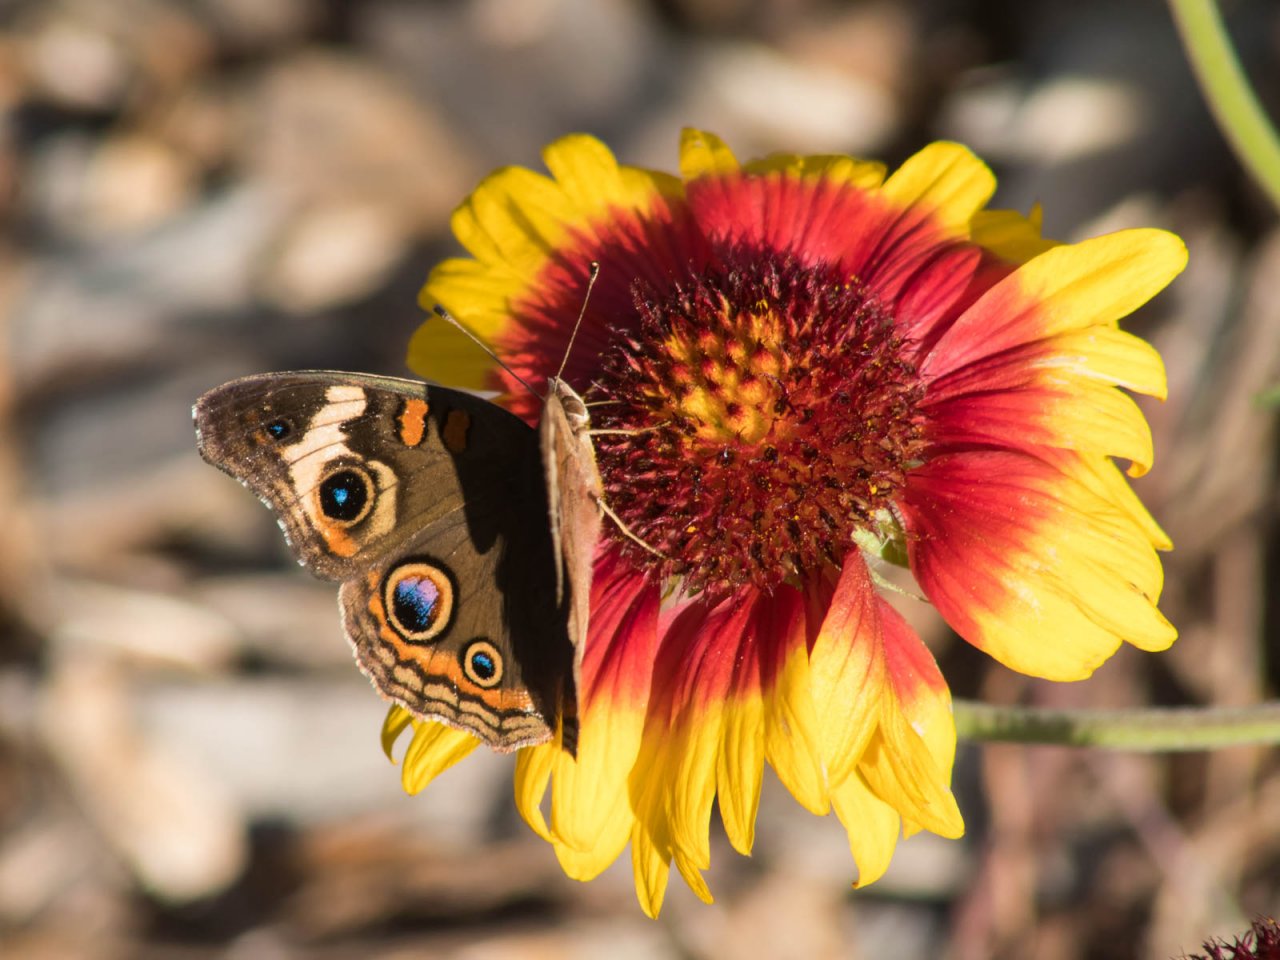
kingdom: Animalia
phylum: Arthropoda
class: Insecta
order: Lepidoptera
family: Nymphalidae
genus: Junonia
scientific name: Junonia coenia
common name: Common Buckeye
